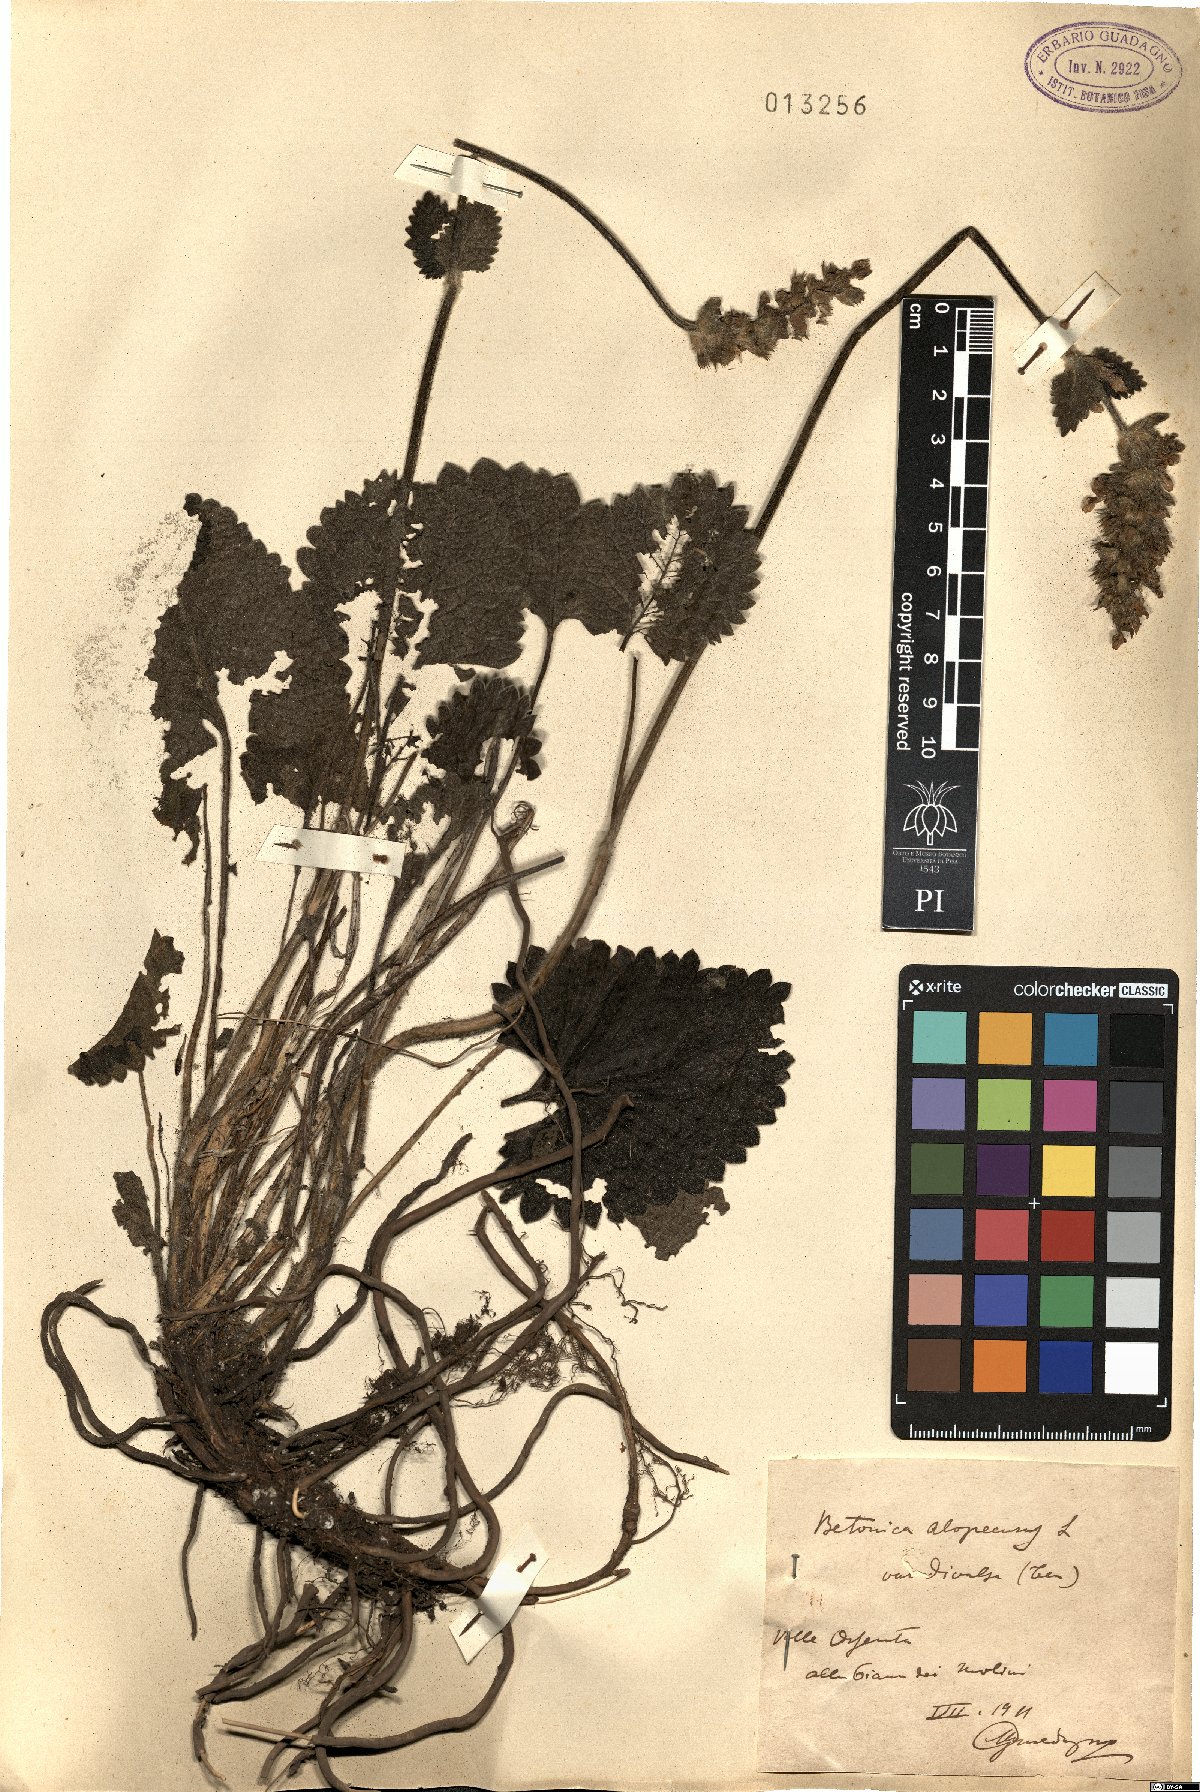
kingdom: Plantae
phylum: Tracheophyta
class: Magnoliopsida
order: Lamiales
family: Lamiaceae
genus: Betonica
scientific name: Betonica alopecuros
